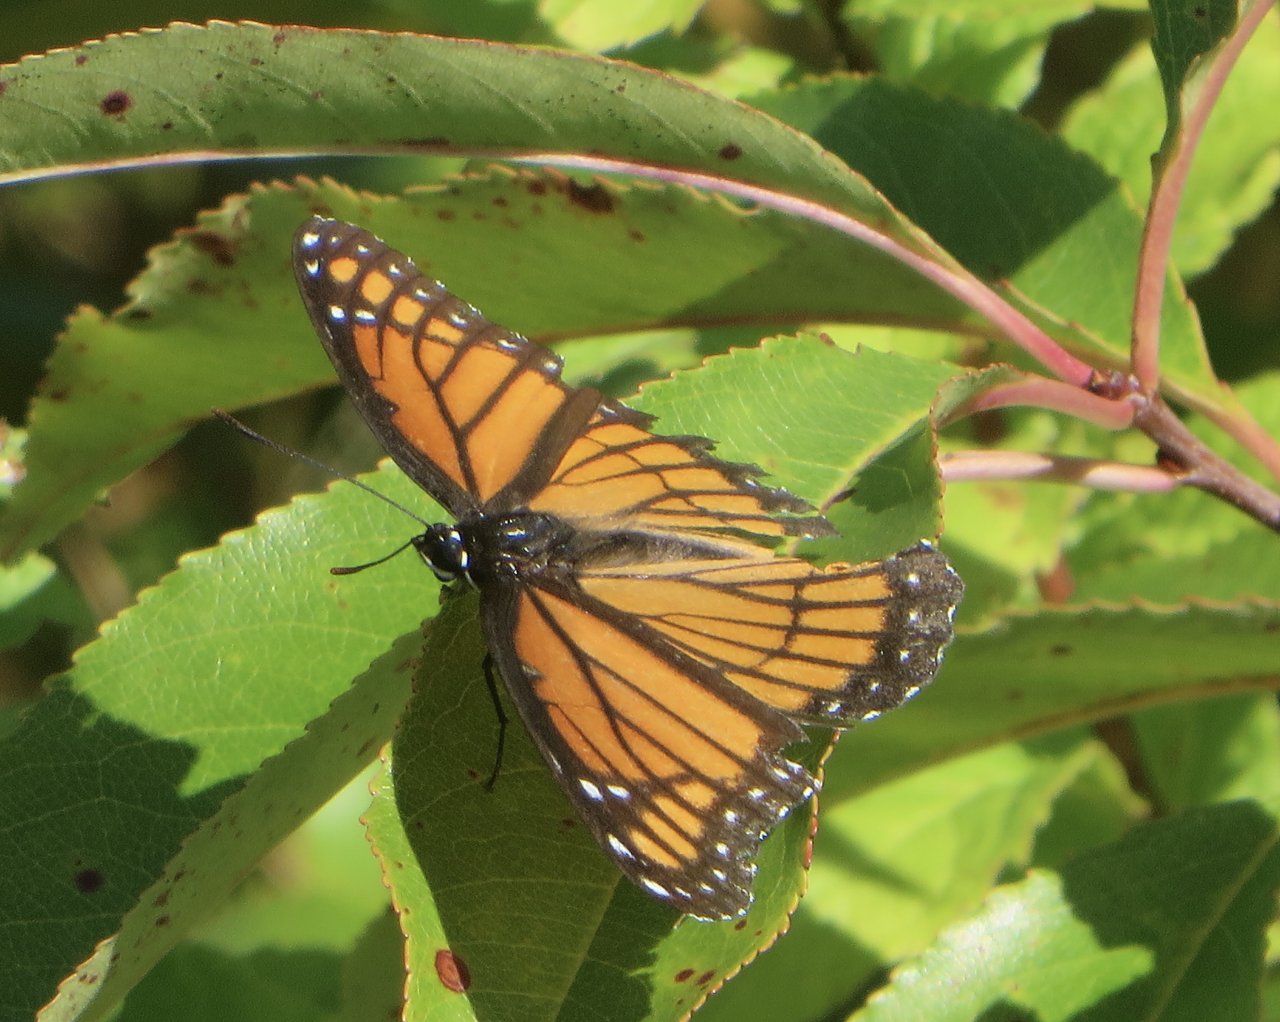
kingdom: Animalia
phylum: Arthropoda
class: Insecta
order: Lepidoptera
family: Nymphalidae
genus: Limenitis
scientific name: Limenitis archippus
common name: Viceroy
